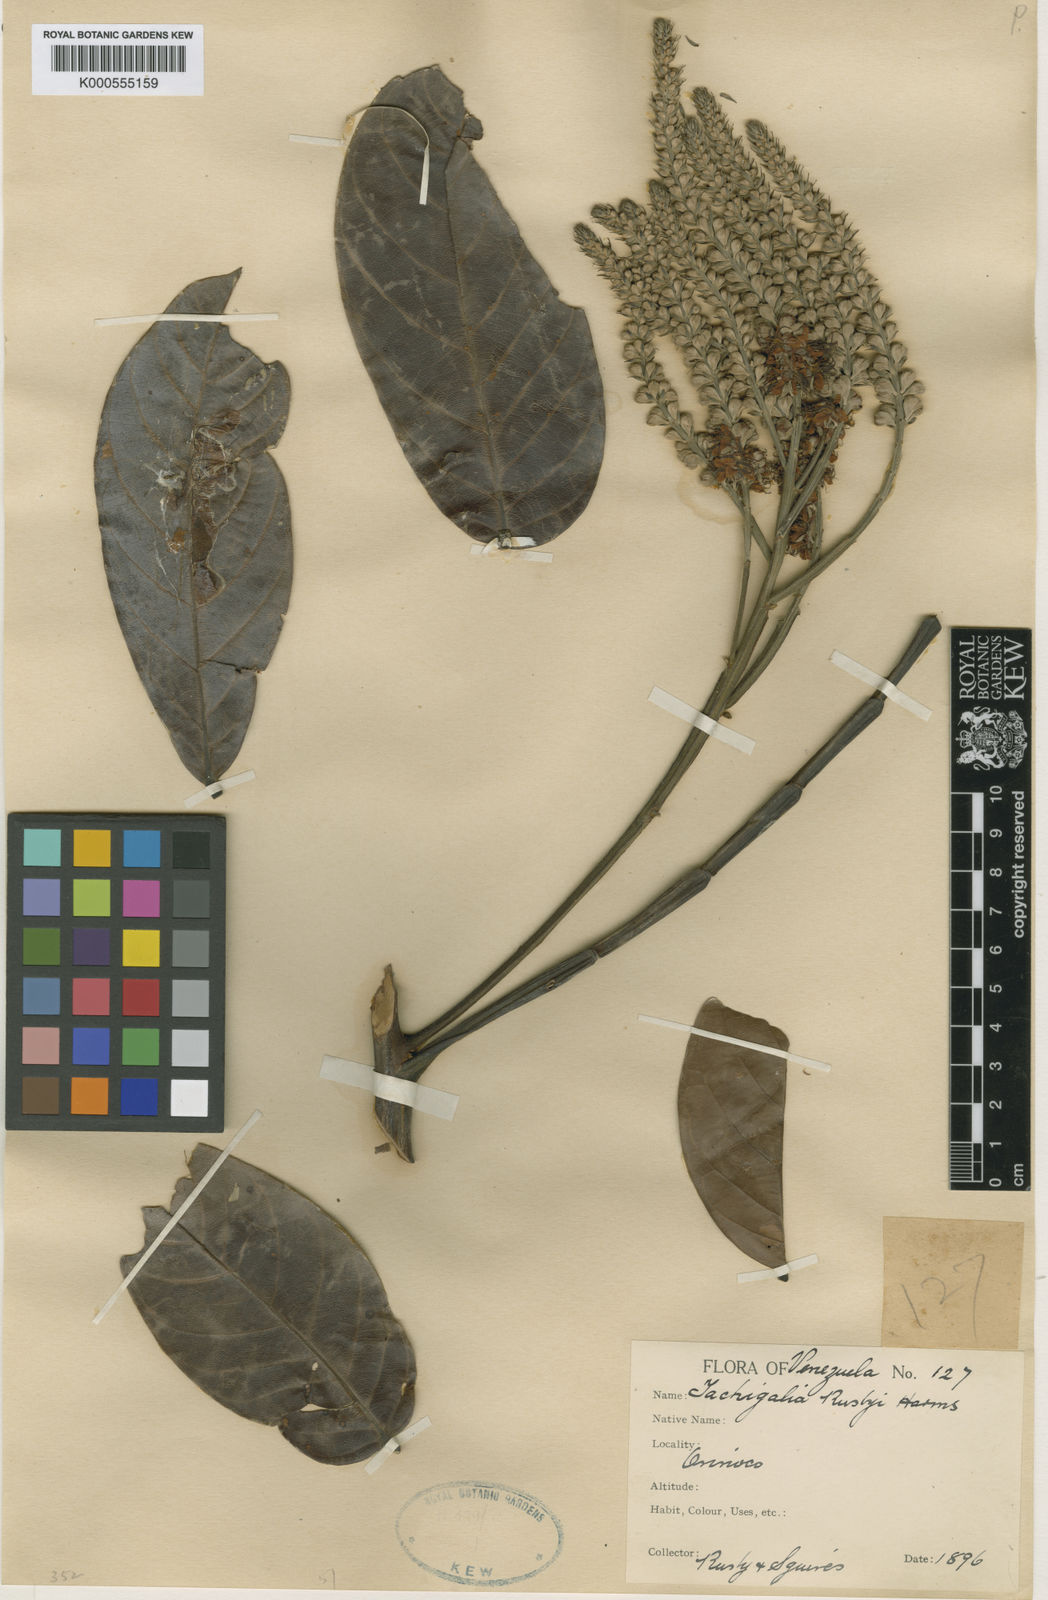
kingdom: Plantae
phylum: Tracheophyta
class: Magnoliopsida
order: Fabales
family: Fabaceae
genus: Tachigali
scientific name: Tachigali paniculata
